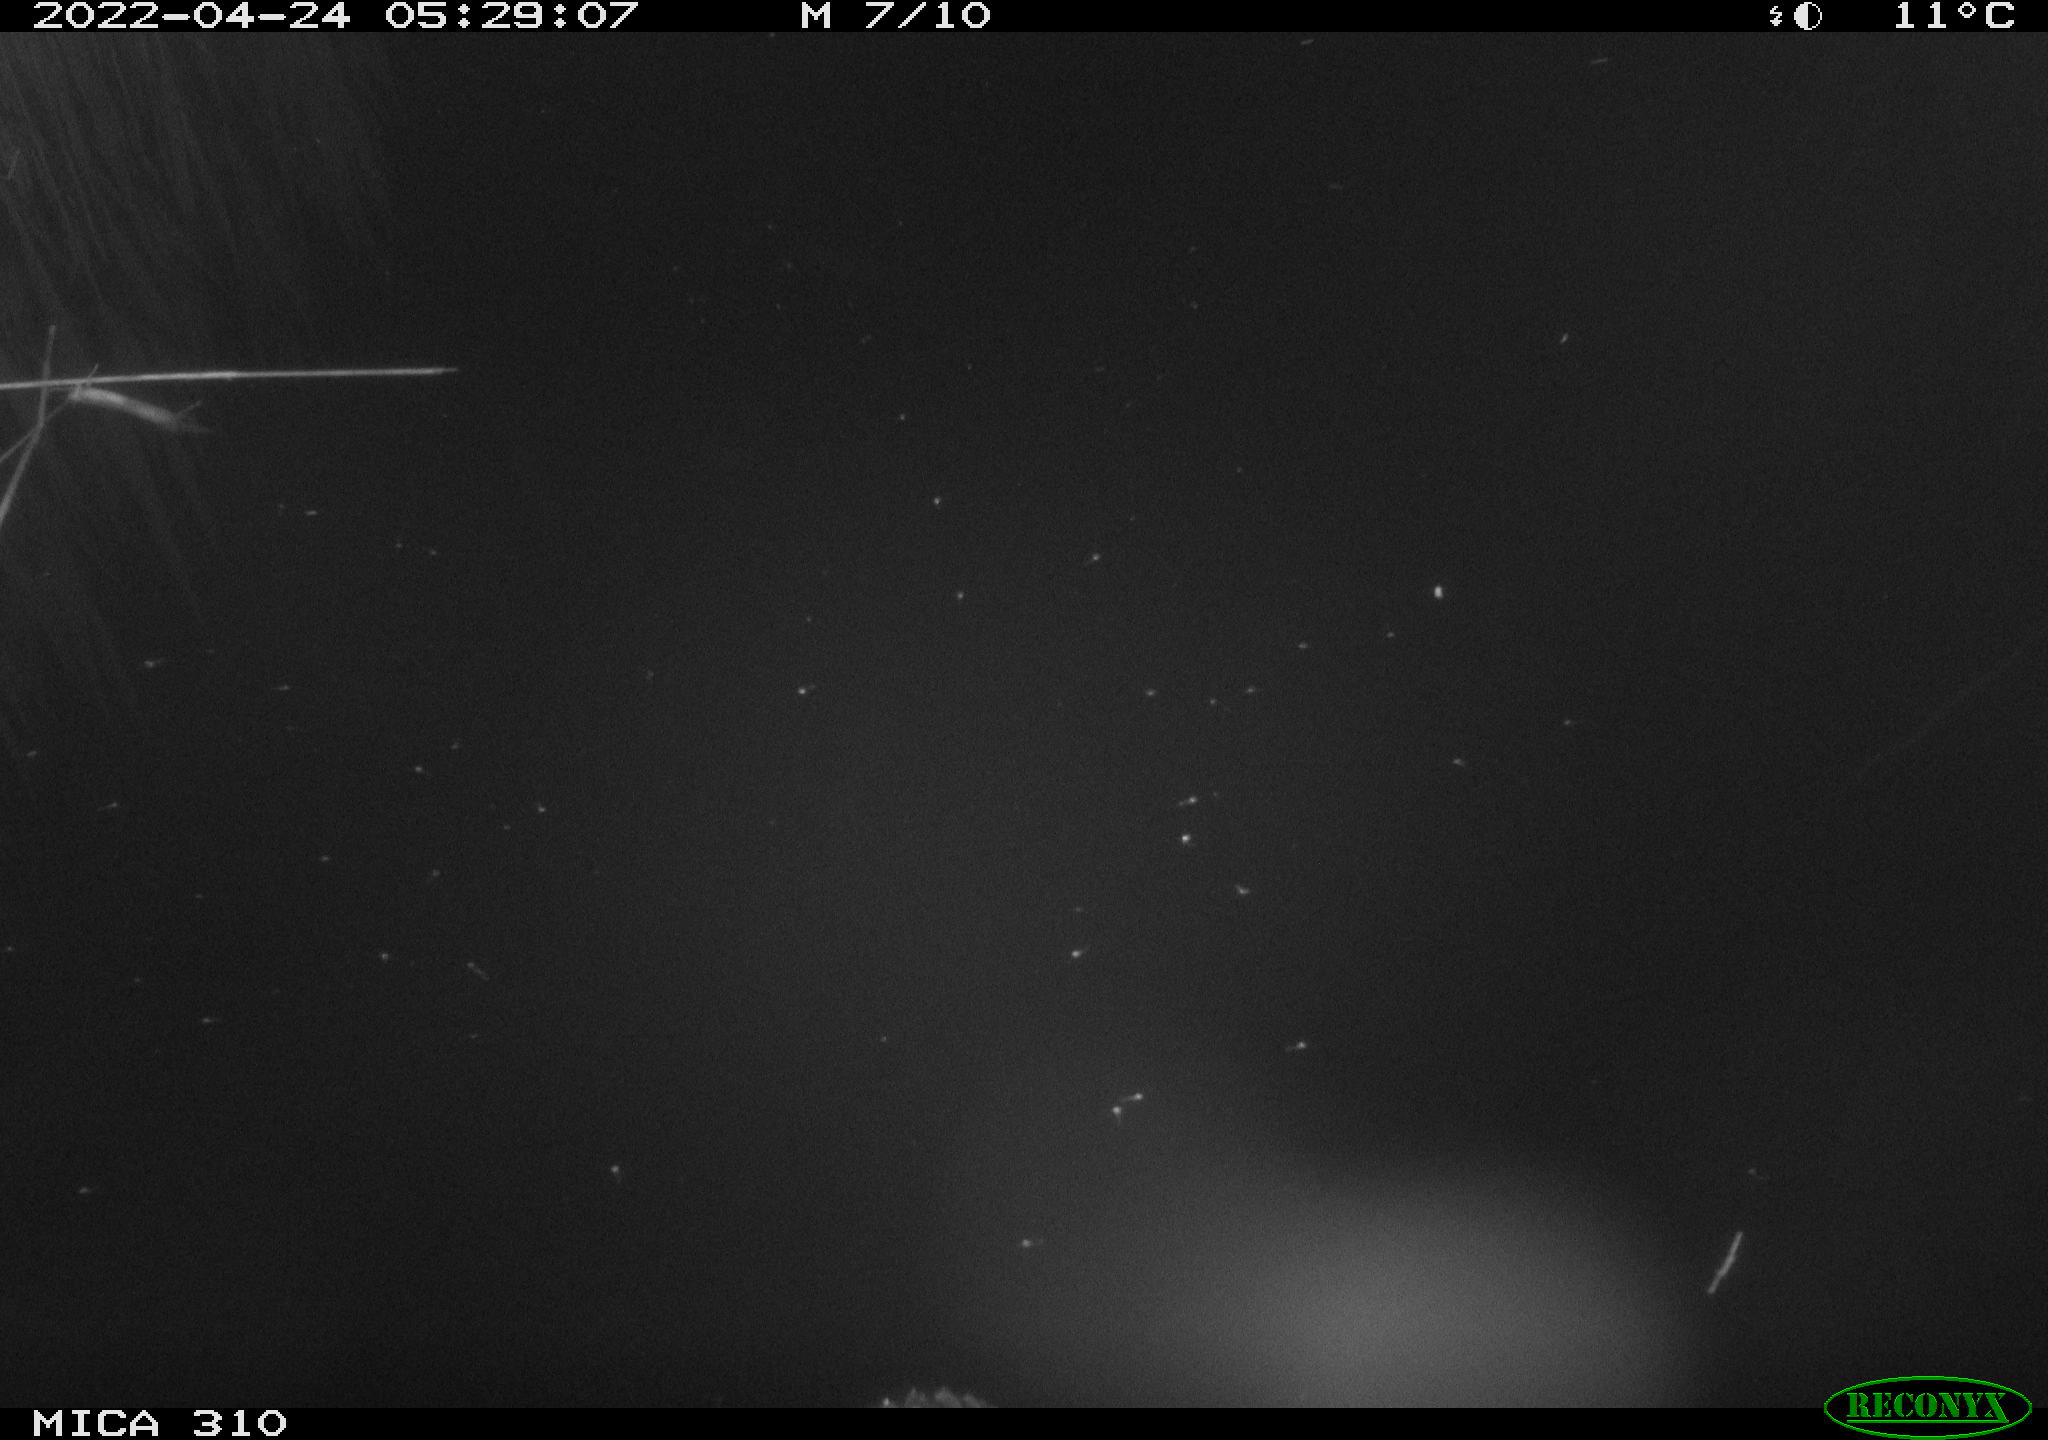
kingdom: Animalia
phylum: Chordata
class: Aves
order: Anseriformes
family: Anatidae
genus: Anas
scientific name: Anas platyrhynchos
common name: Mallard
